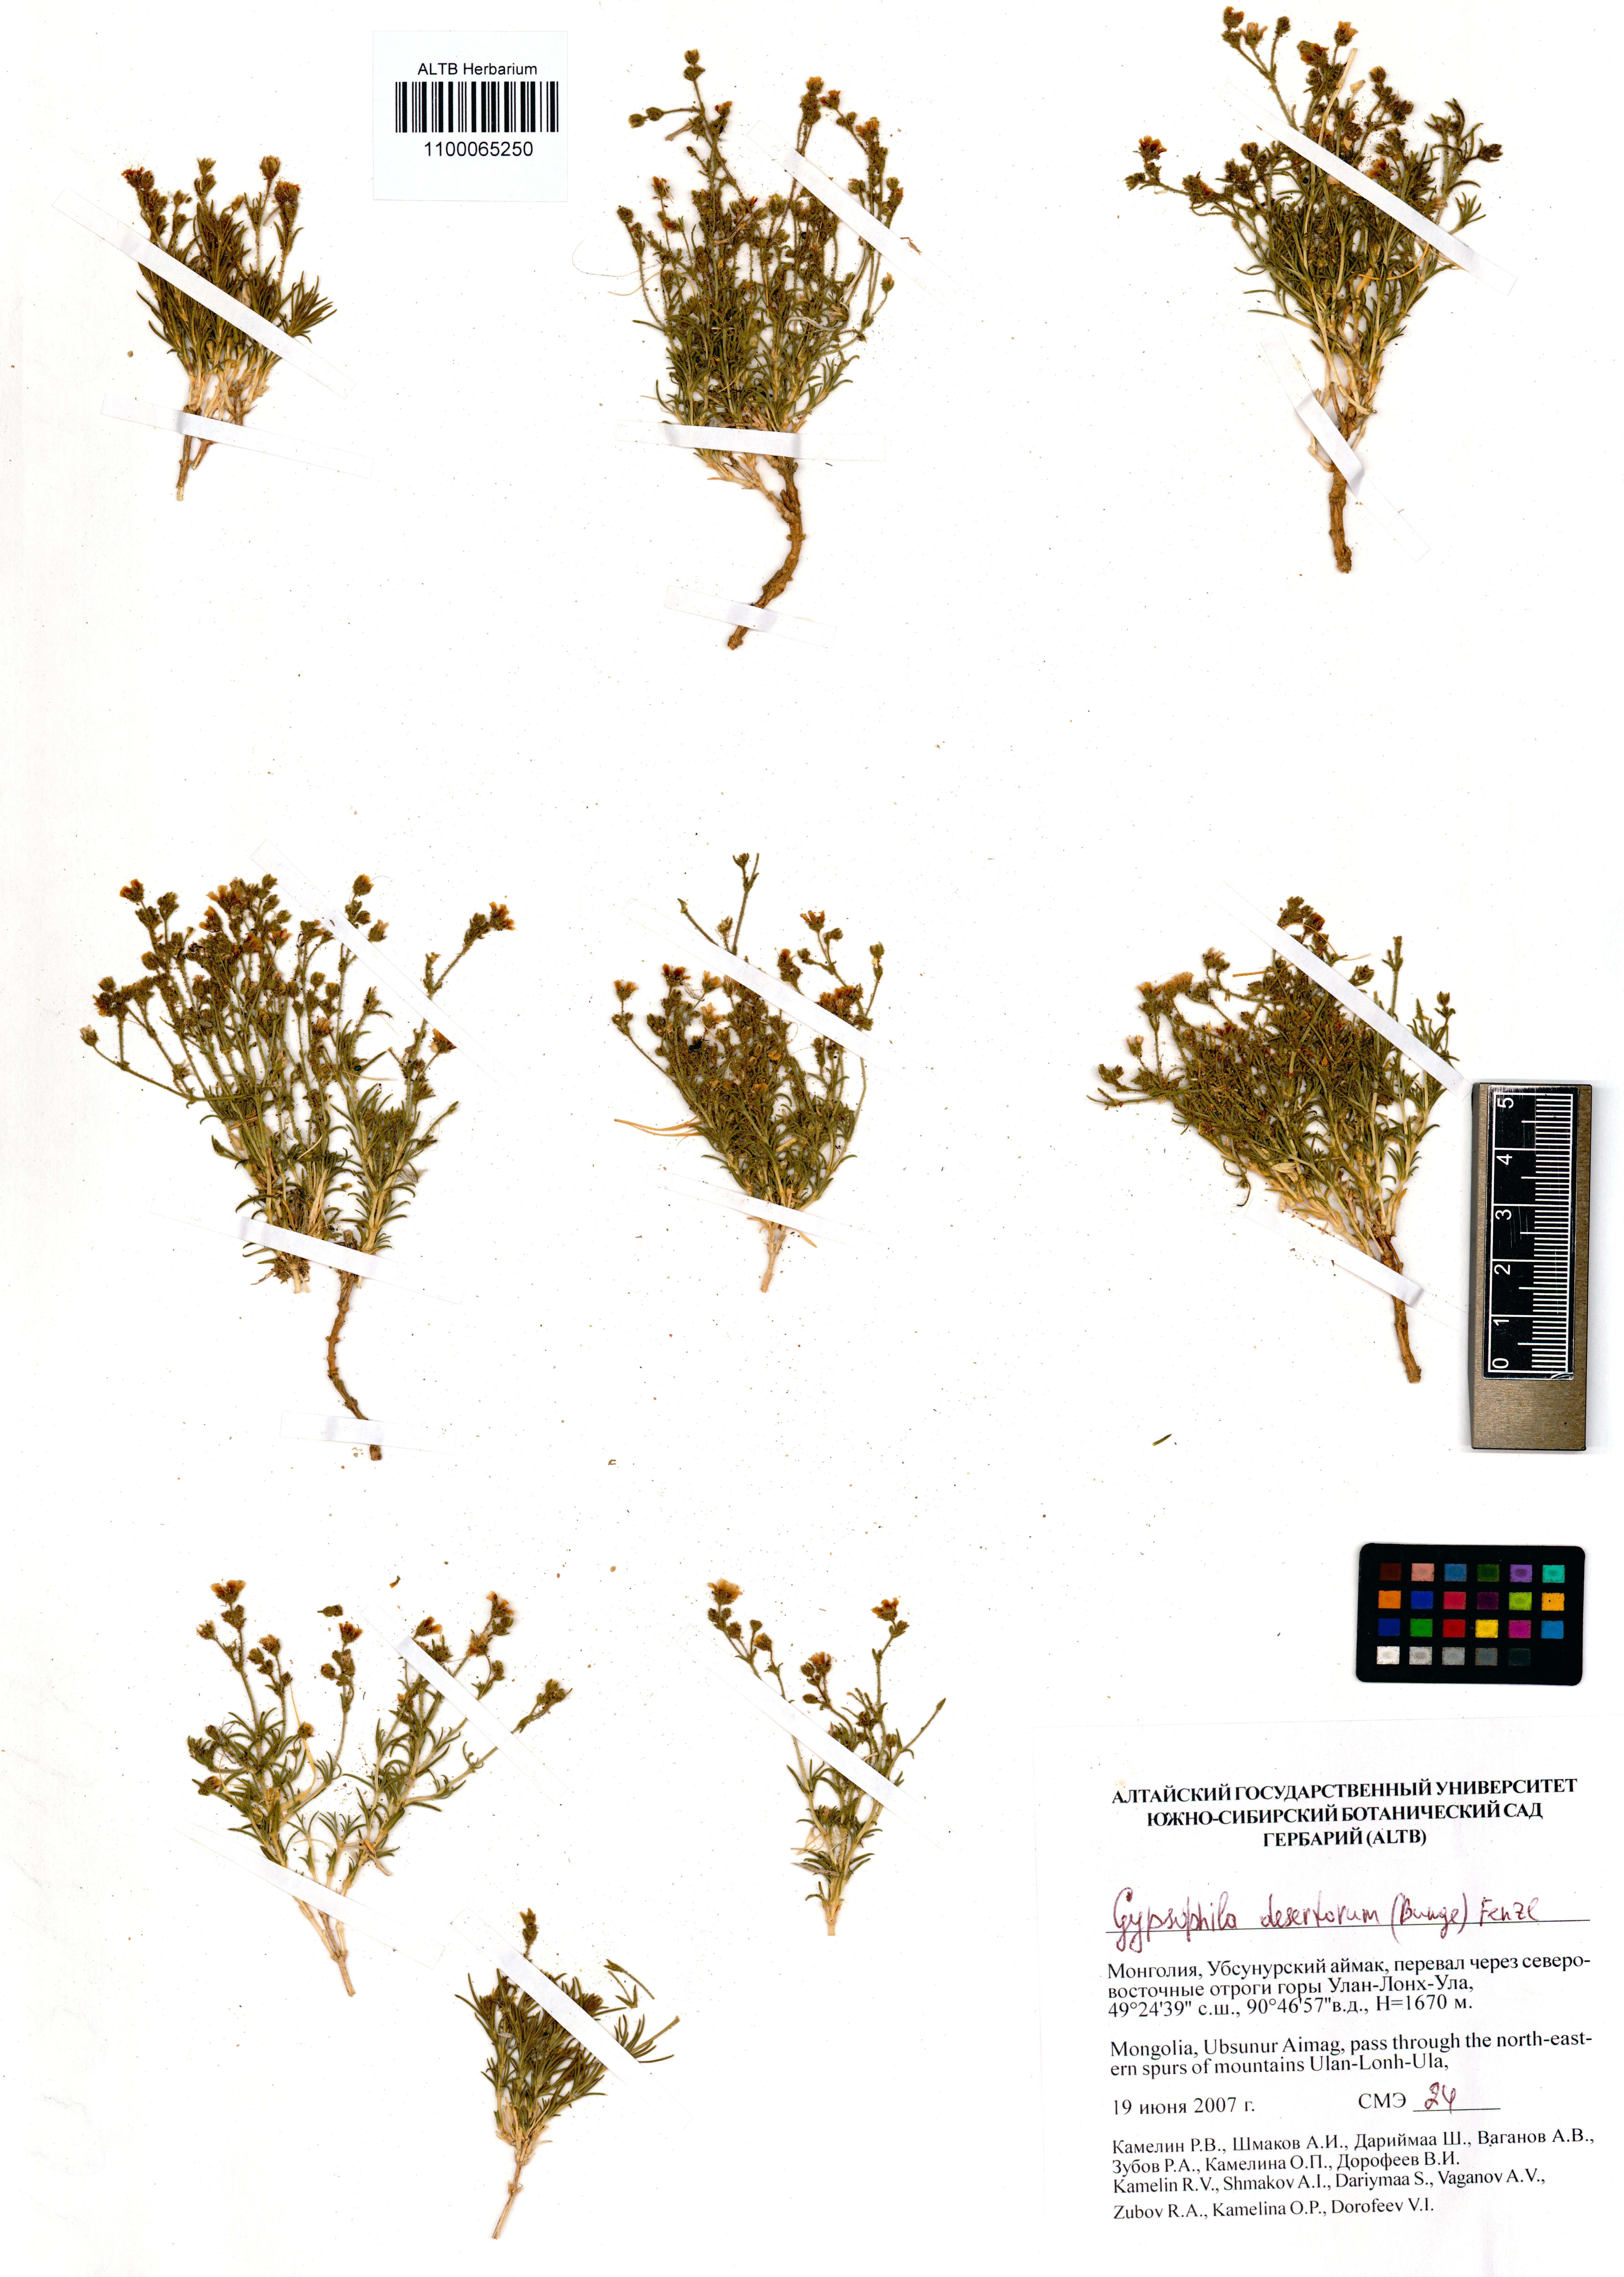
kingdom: Plantae
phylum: Tracheophyta
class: Magnoliopsida
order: Caryophyllales
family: Caryophyllaceae
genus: Heterochroa
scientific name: Heterochroa desertorum
